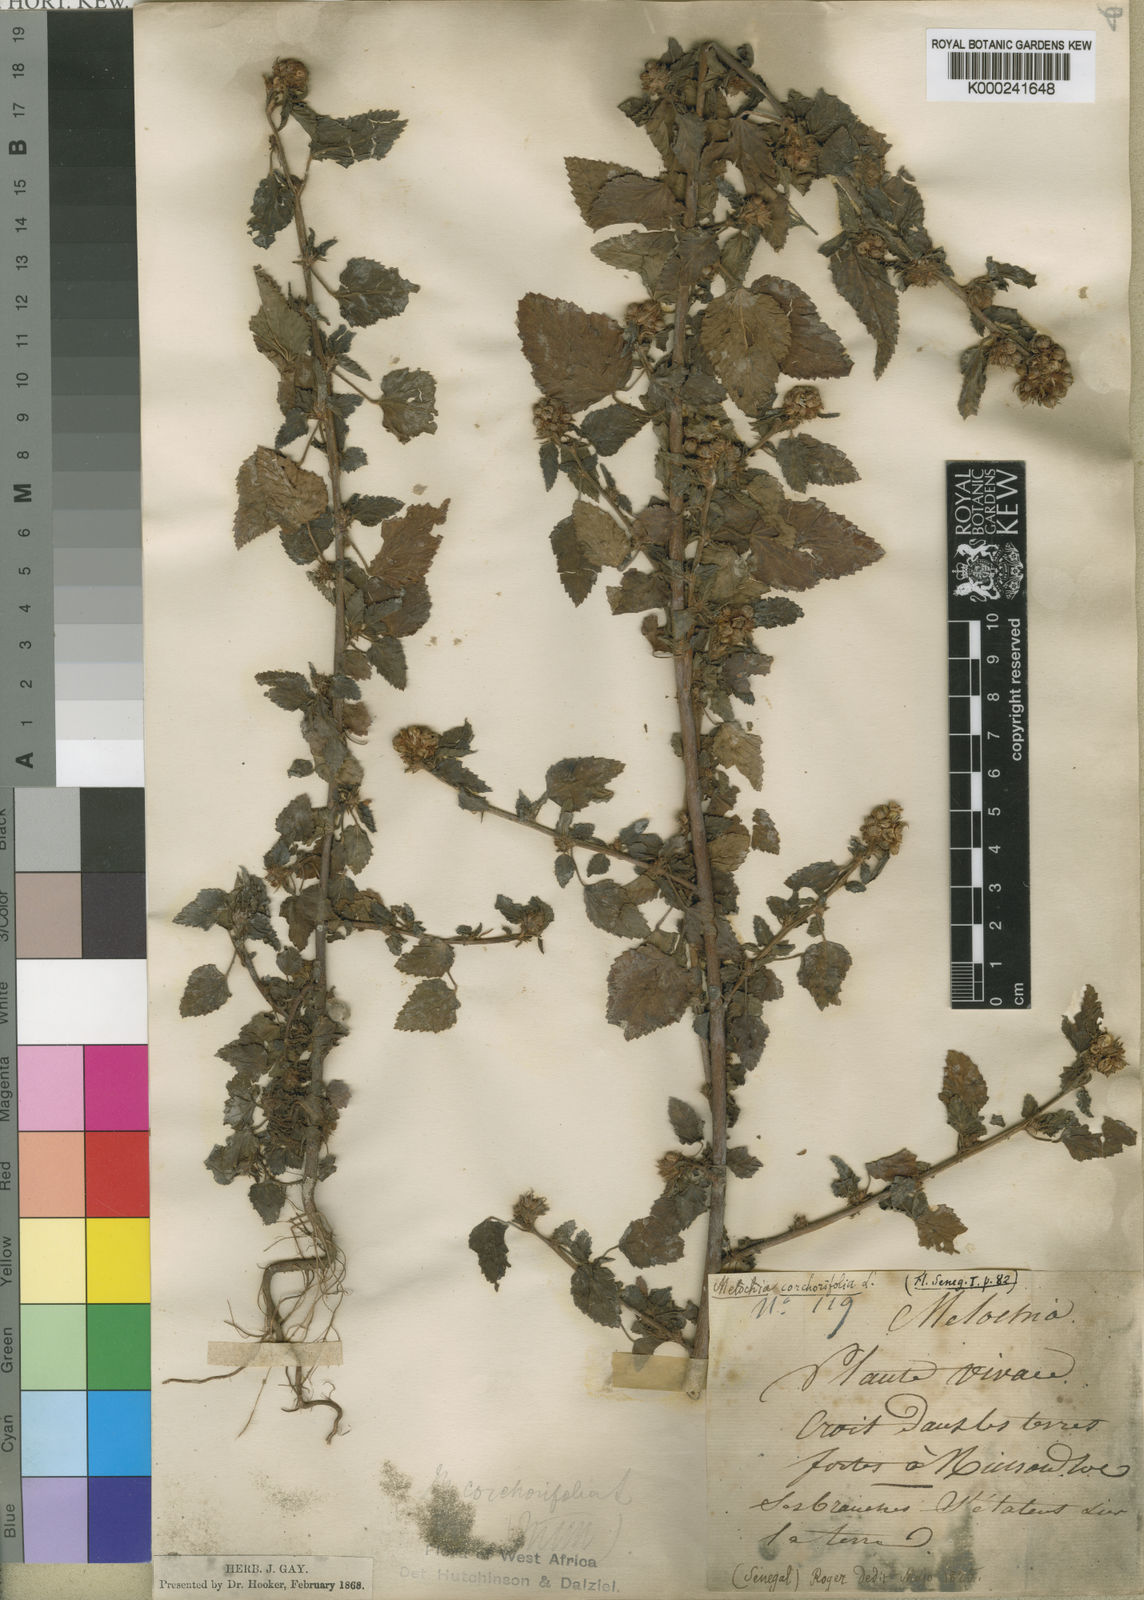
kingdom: Plantae
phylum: Tracheophyta
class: Magnoliopsida
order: Malvales
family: Malvaceae
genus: Melochia
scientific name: Melochia corchorifolia
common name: Chocolateweed
